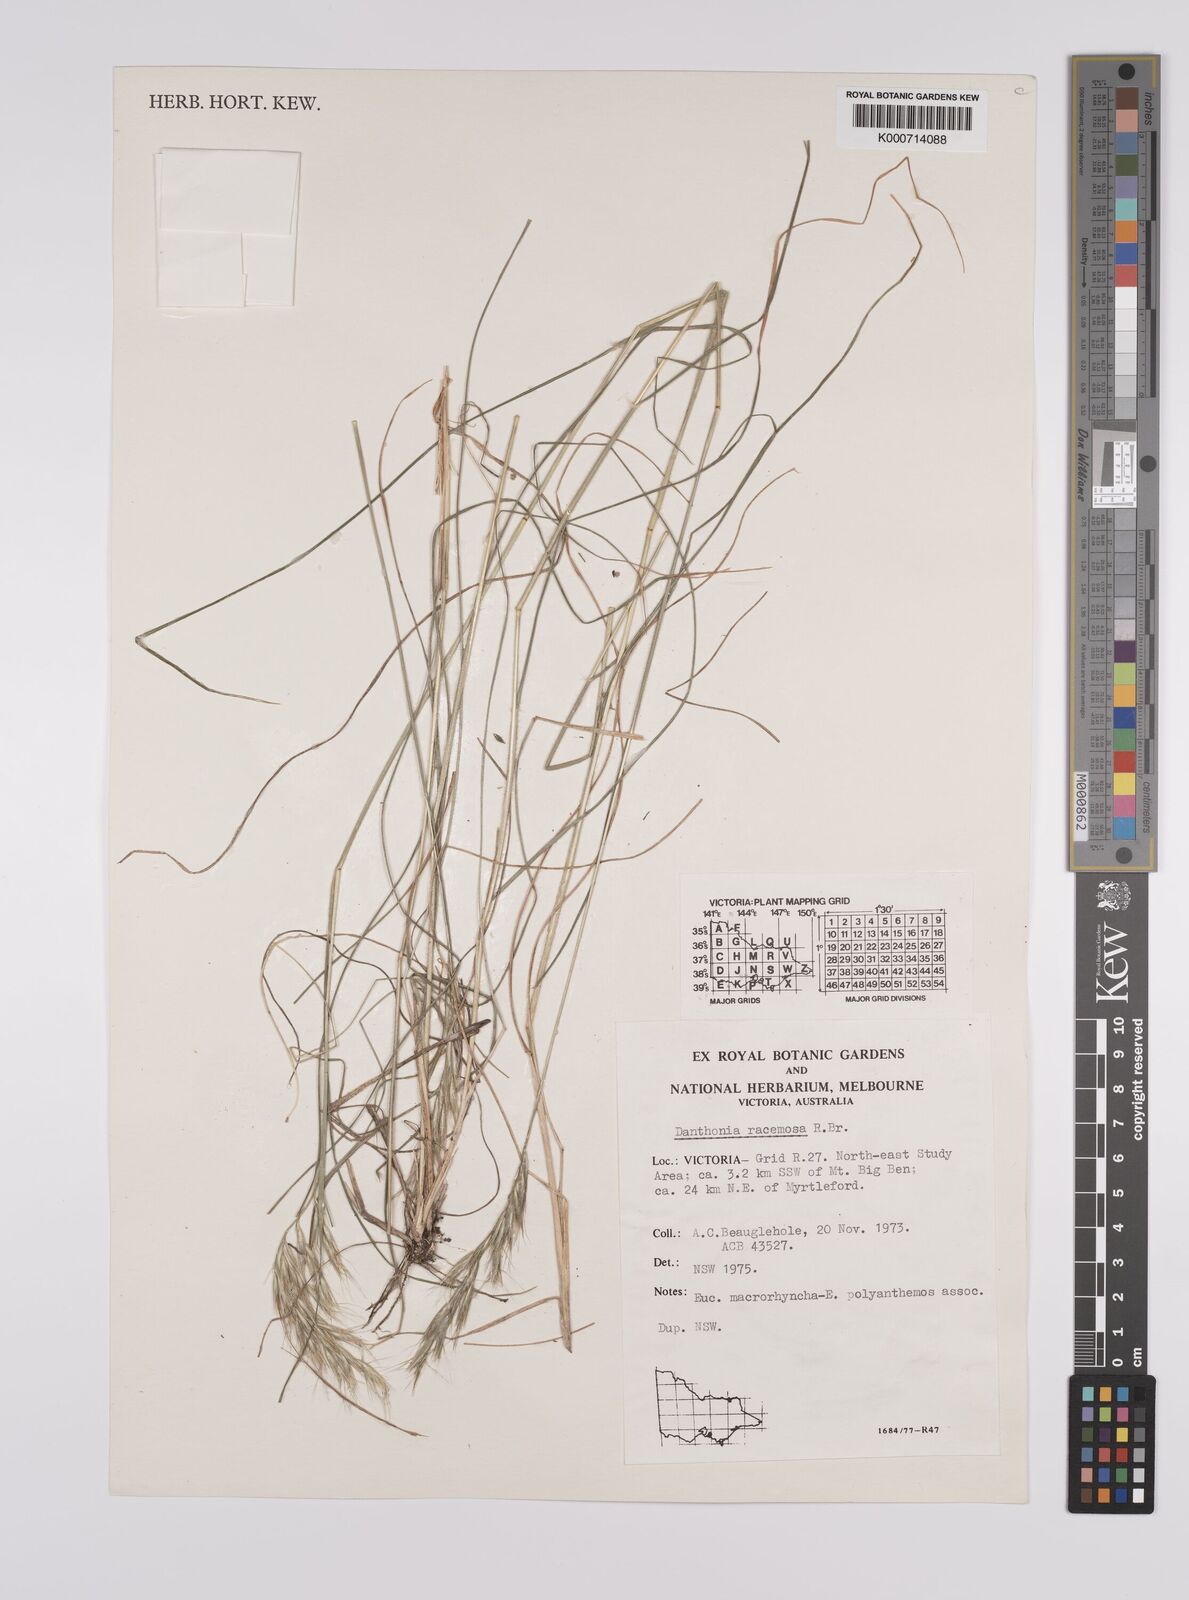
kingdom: Plantae
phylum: Tracheophyta
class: Liliopsida
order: Poales
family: Poaceae
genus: Rytidosperma
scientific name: Rytidosperma racemosum
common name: Wallaby-grass
